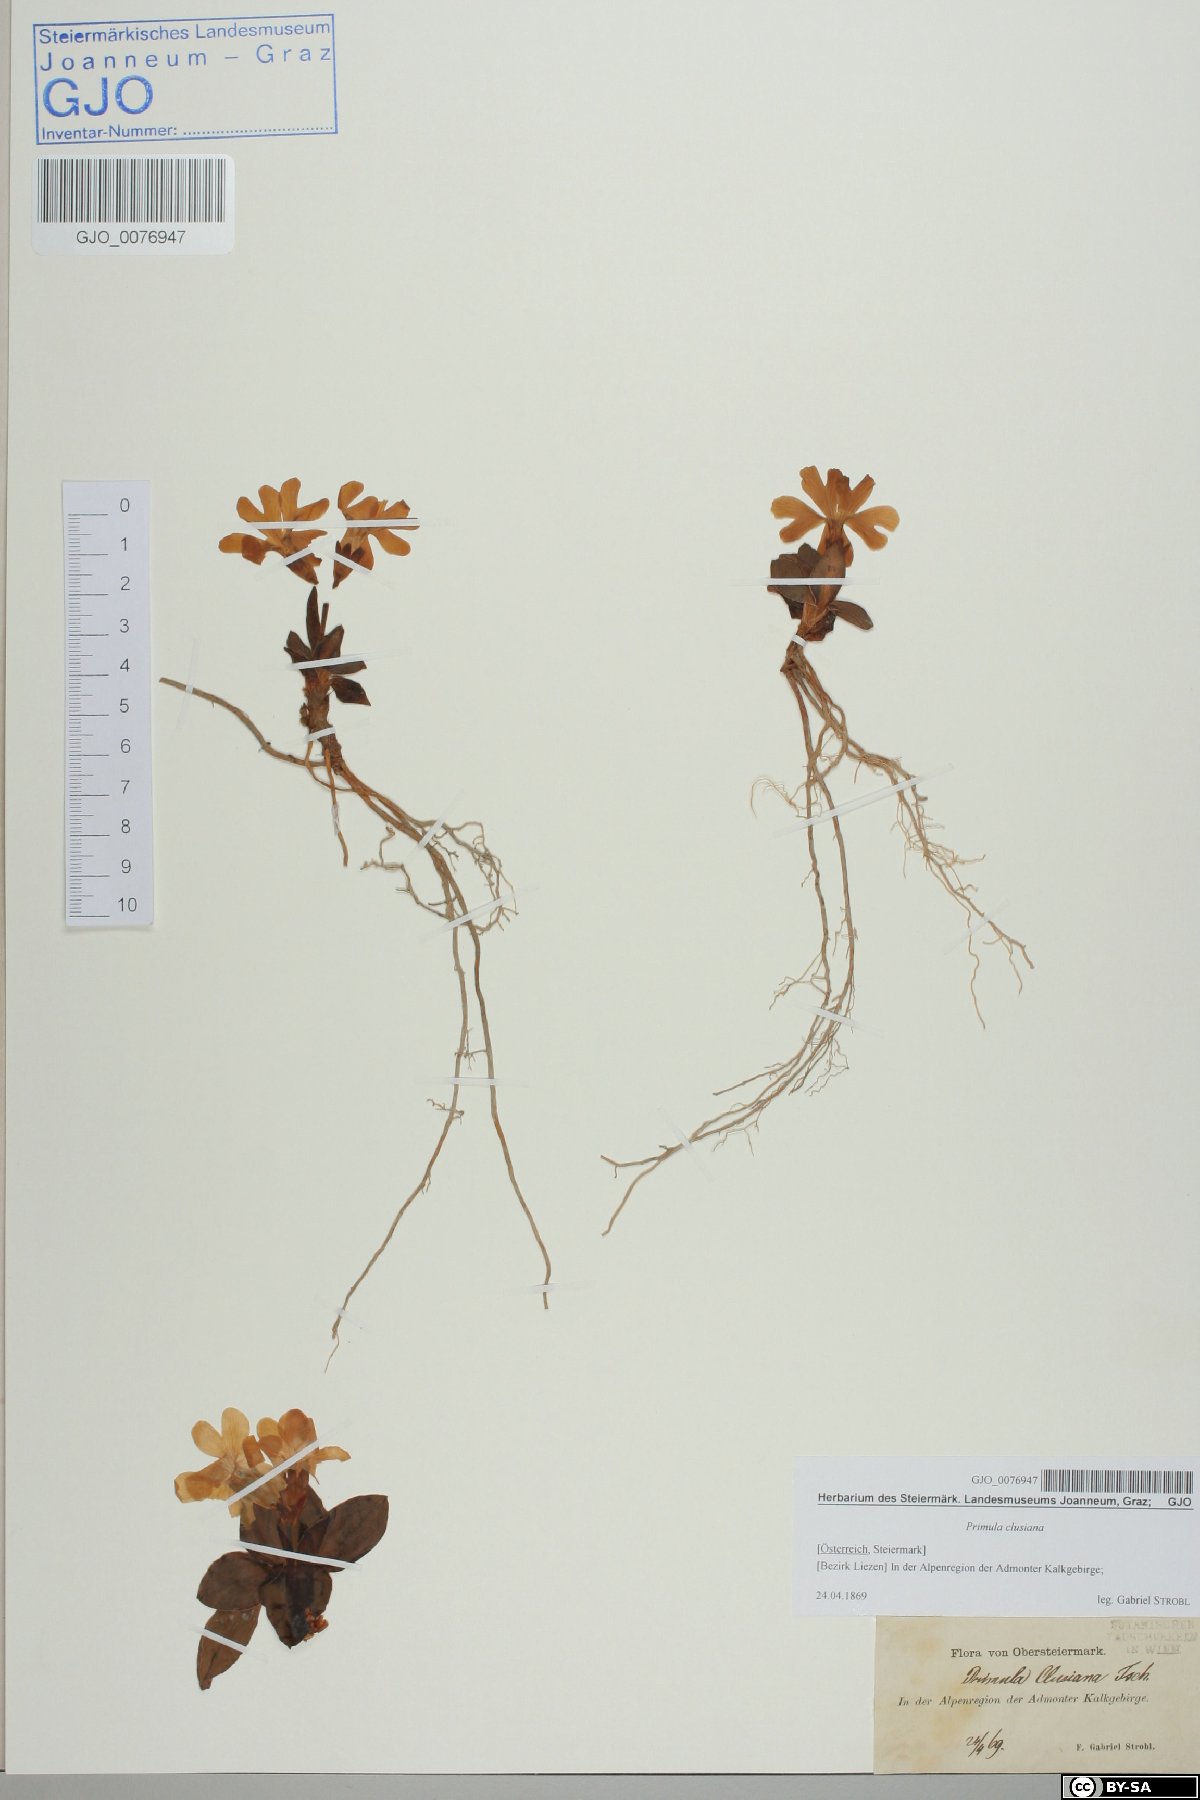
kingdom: Plantae
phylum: Tracheophyta
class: Magnoliopsida
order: Ericales
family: Primulaceae
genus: Primula
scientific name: Primula clusiana
